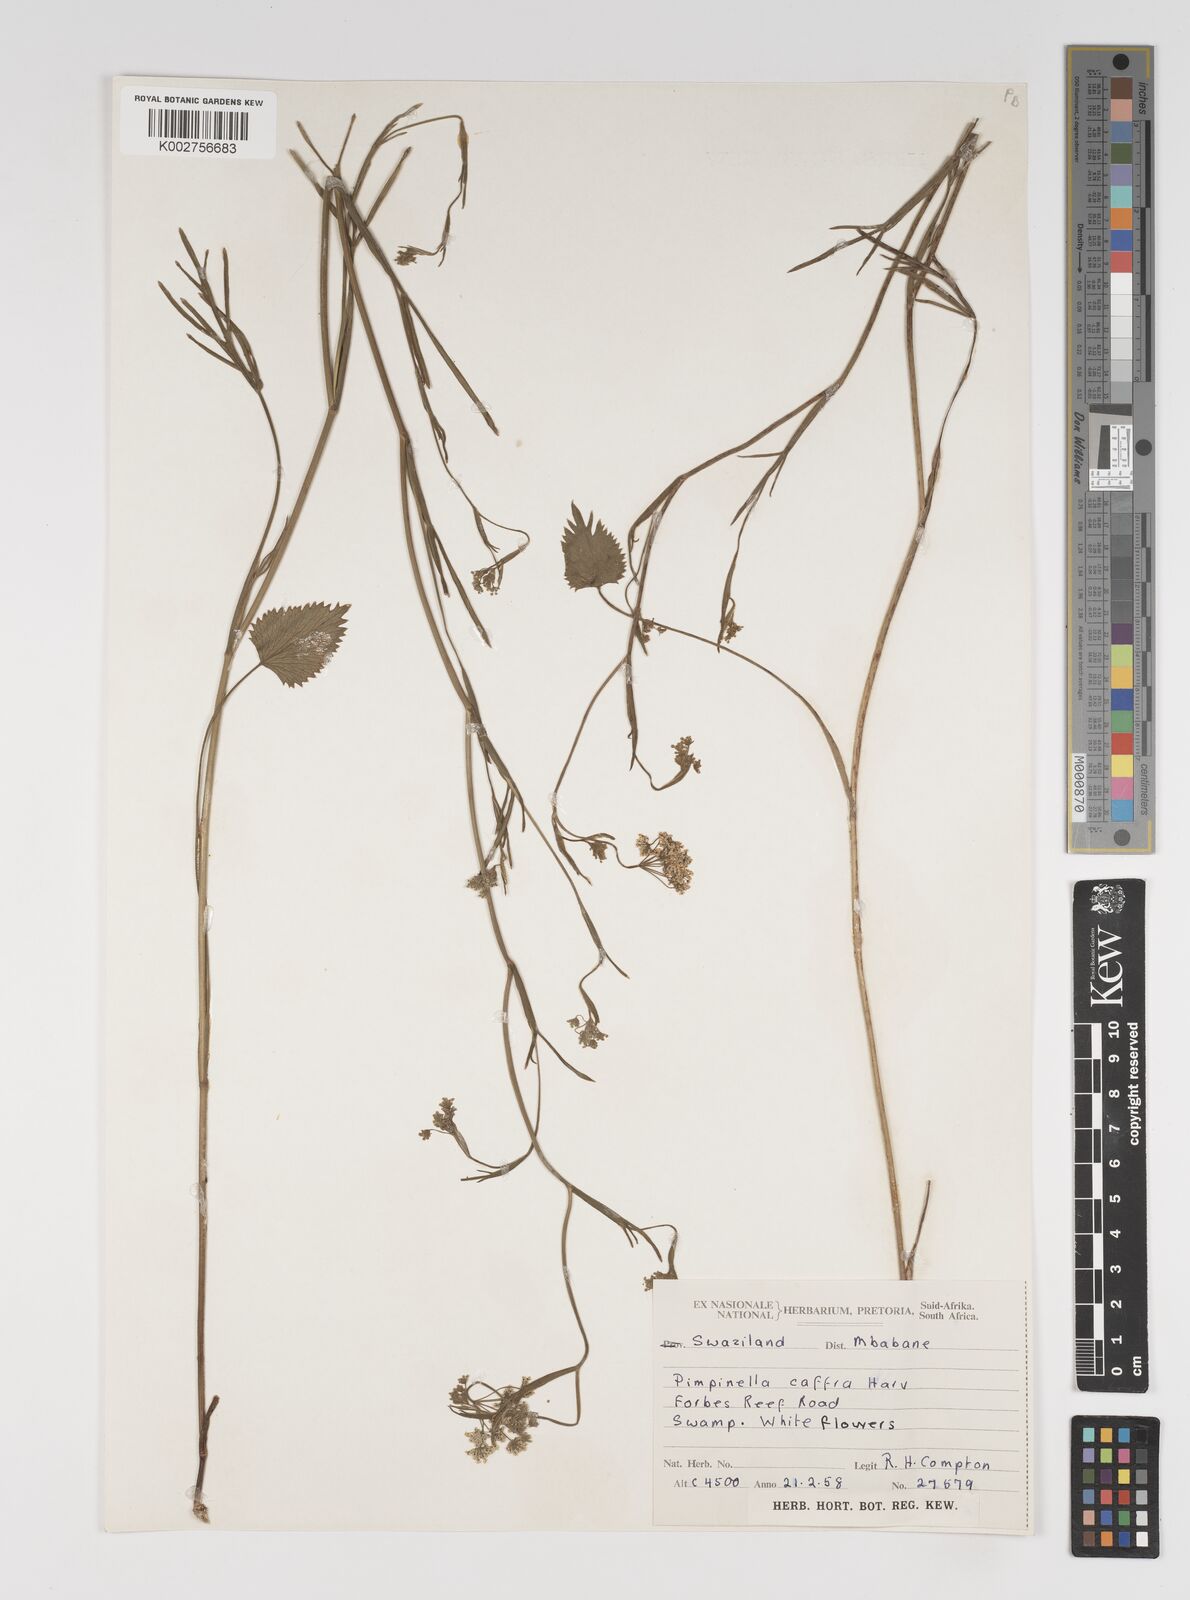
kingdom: Plantae
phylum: Tracheophyta
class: Magnoliopsida
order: Apiales
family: Apiaceae
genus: Pimpinella
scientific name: Pimpinella
